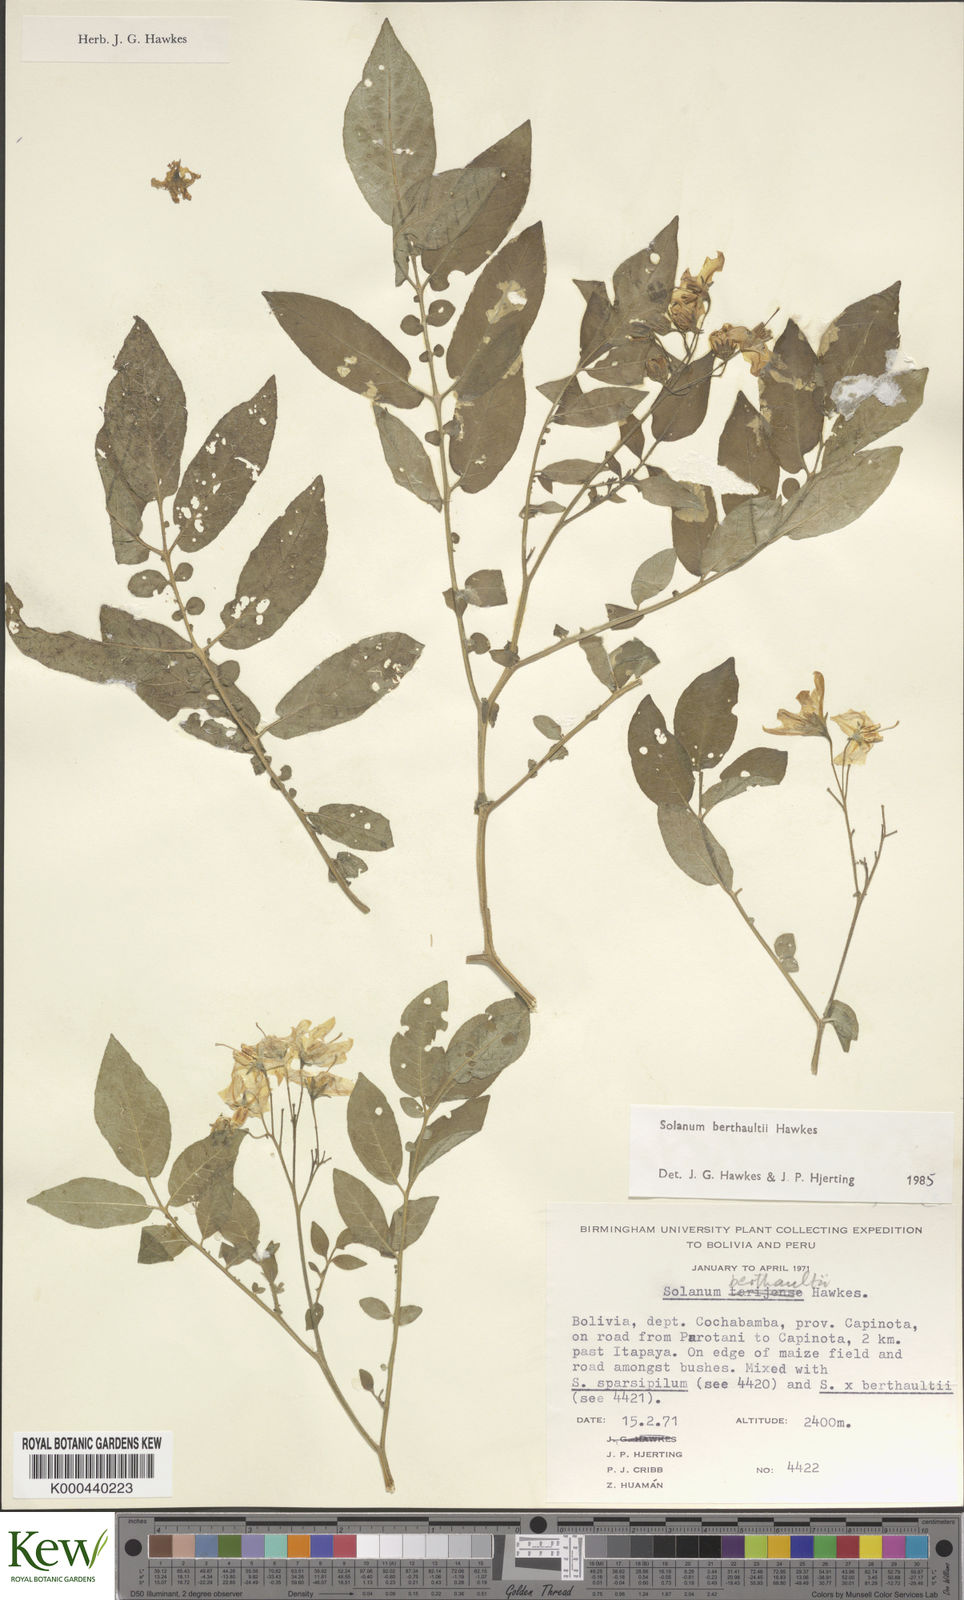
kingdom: Plantae
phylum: Tracheophyta
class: Magnoliopsida
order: Solanales
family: Solanaceae
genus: Solanum
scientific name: Solanum berthaultii
